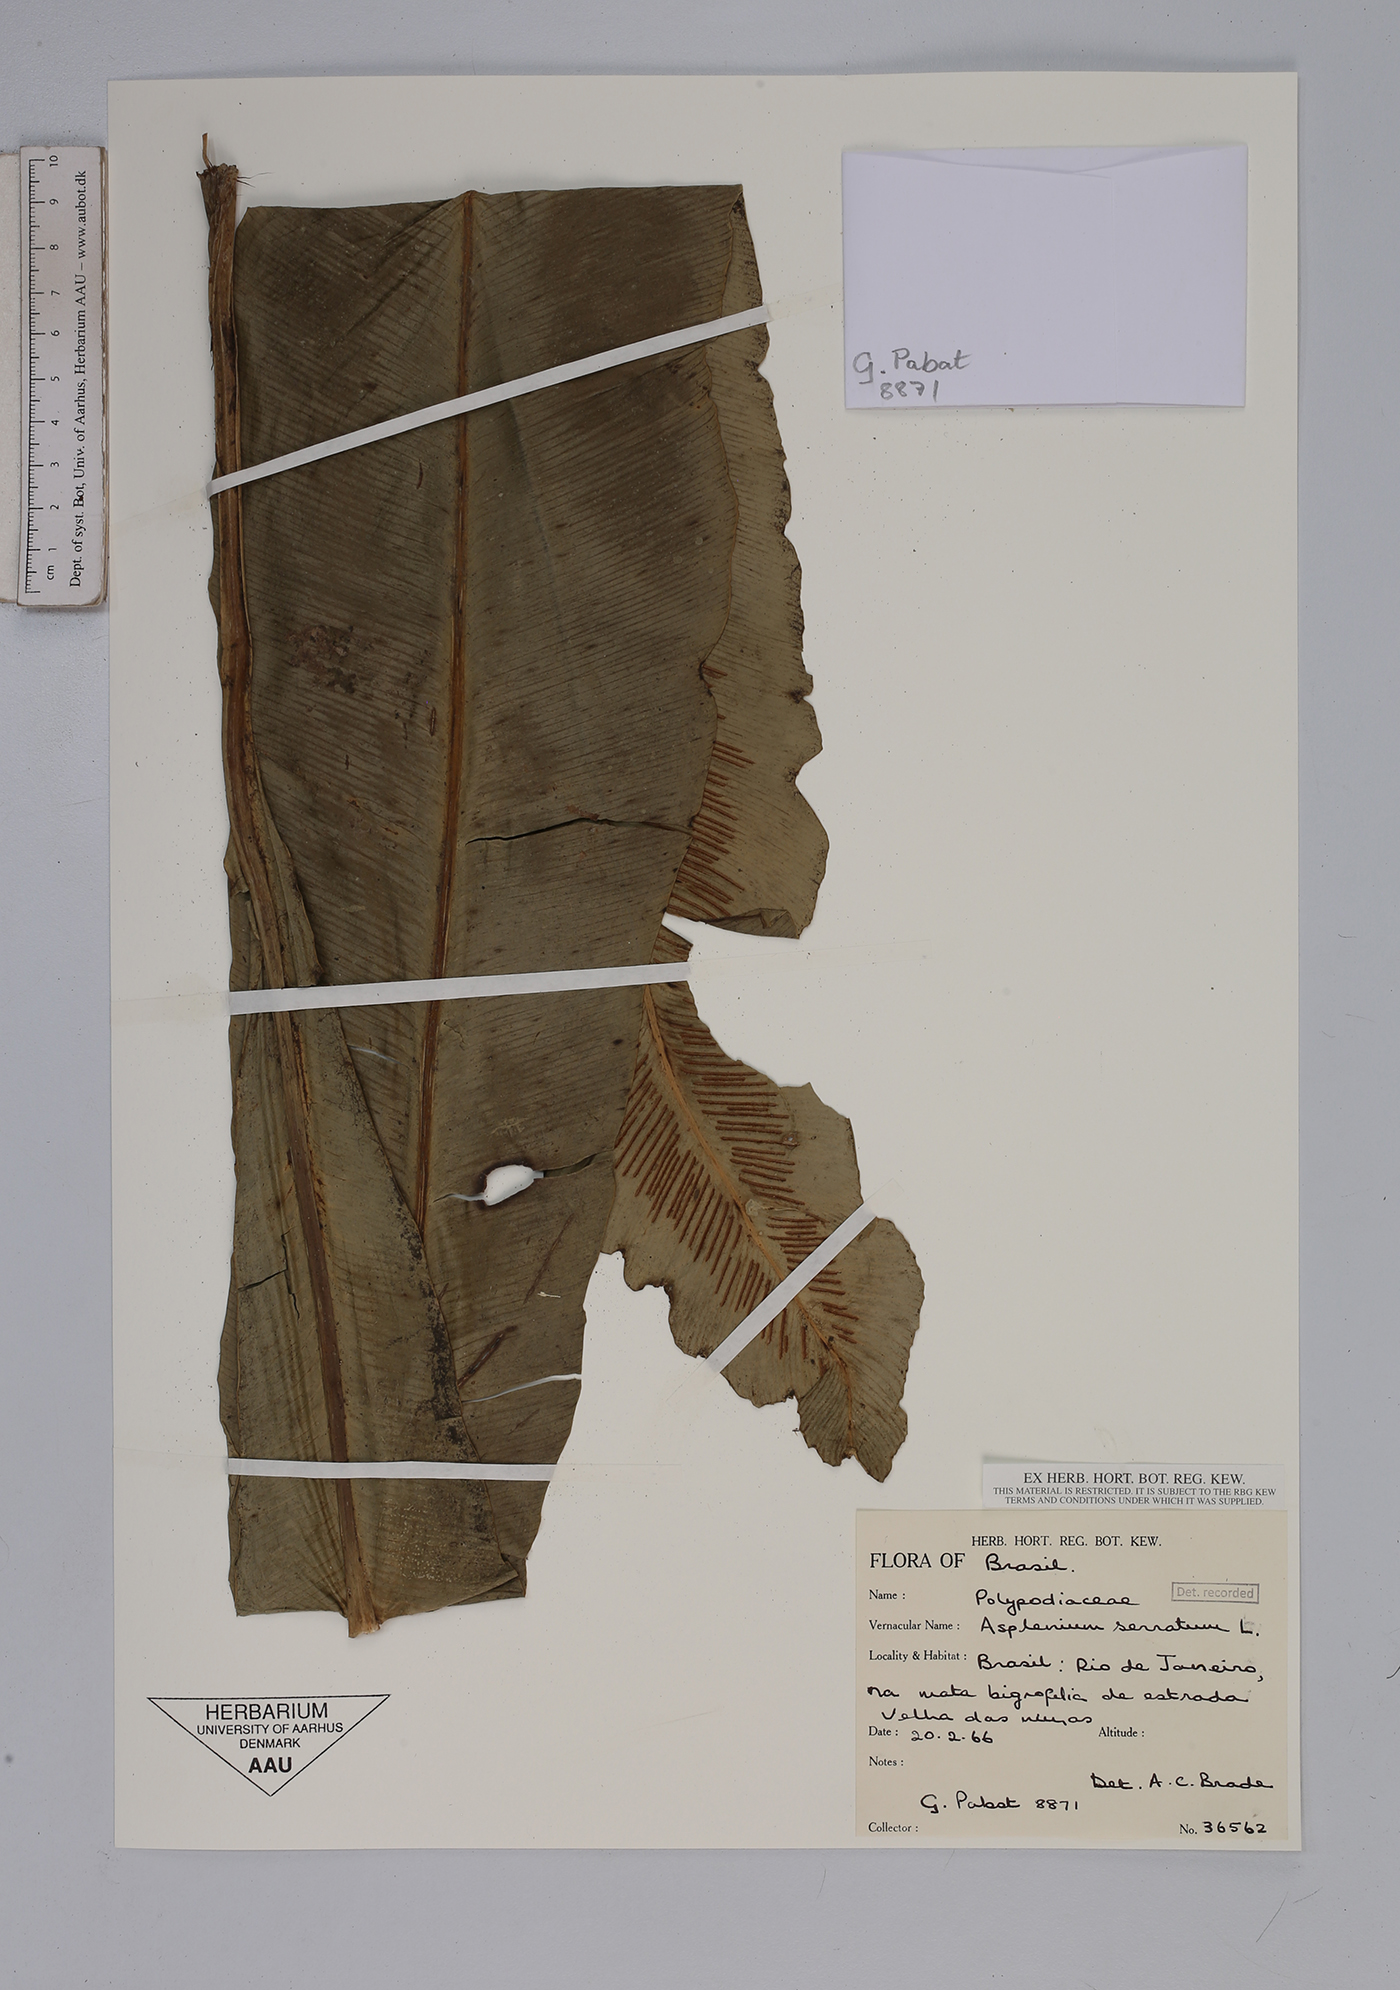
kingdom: Plantae
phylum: Tracheophyta
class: Polypodiopsida
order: Polypodiales
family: Aspleniaceae
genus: Asplenium
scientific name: Asplenium serratum
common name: Wild birdnest fern
